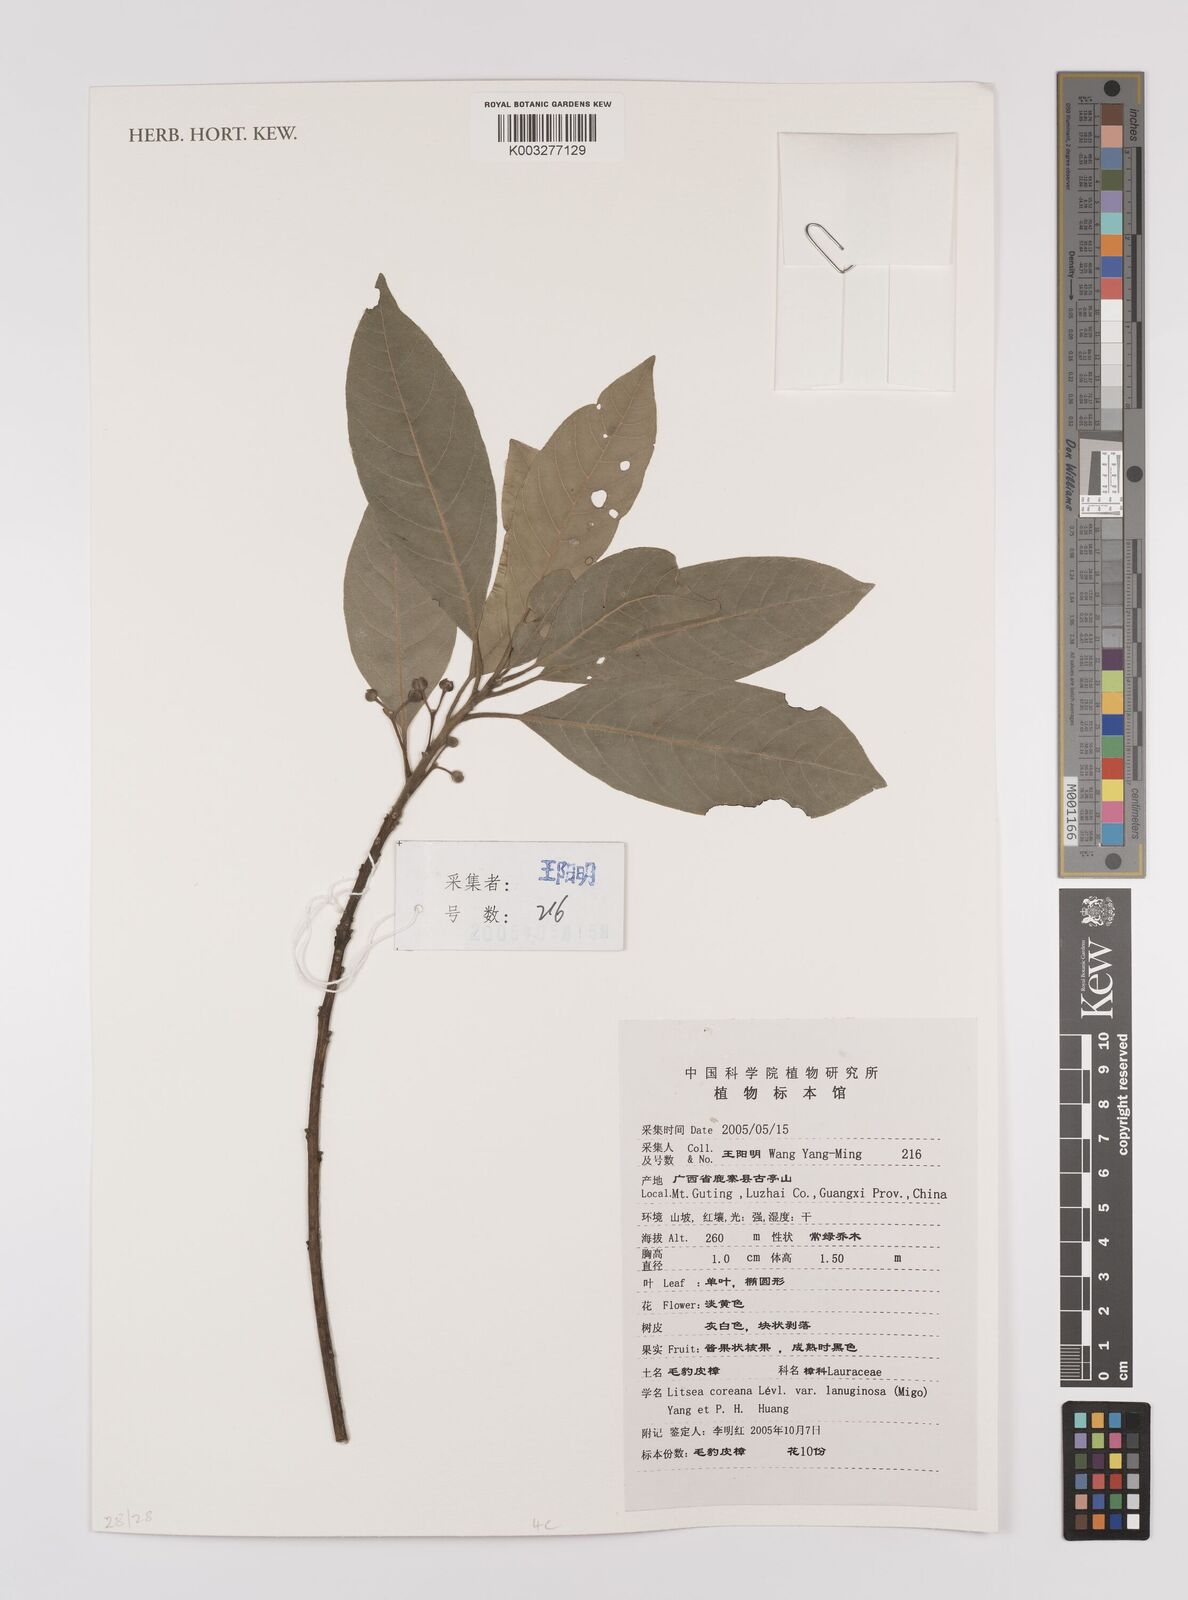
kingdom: Plantae
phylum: Tracheophyta
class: Magnoliopsida
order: Laurales
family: Lauraceae
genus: Litsea
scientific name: Litsea coreana
